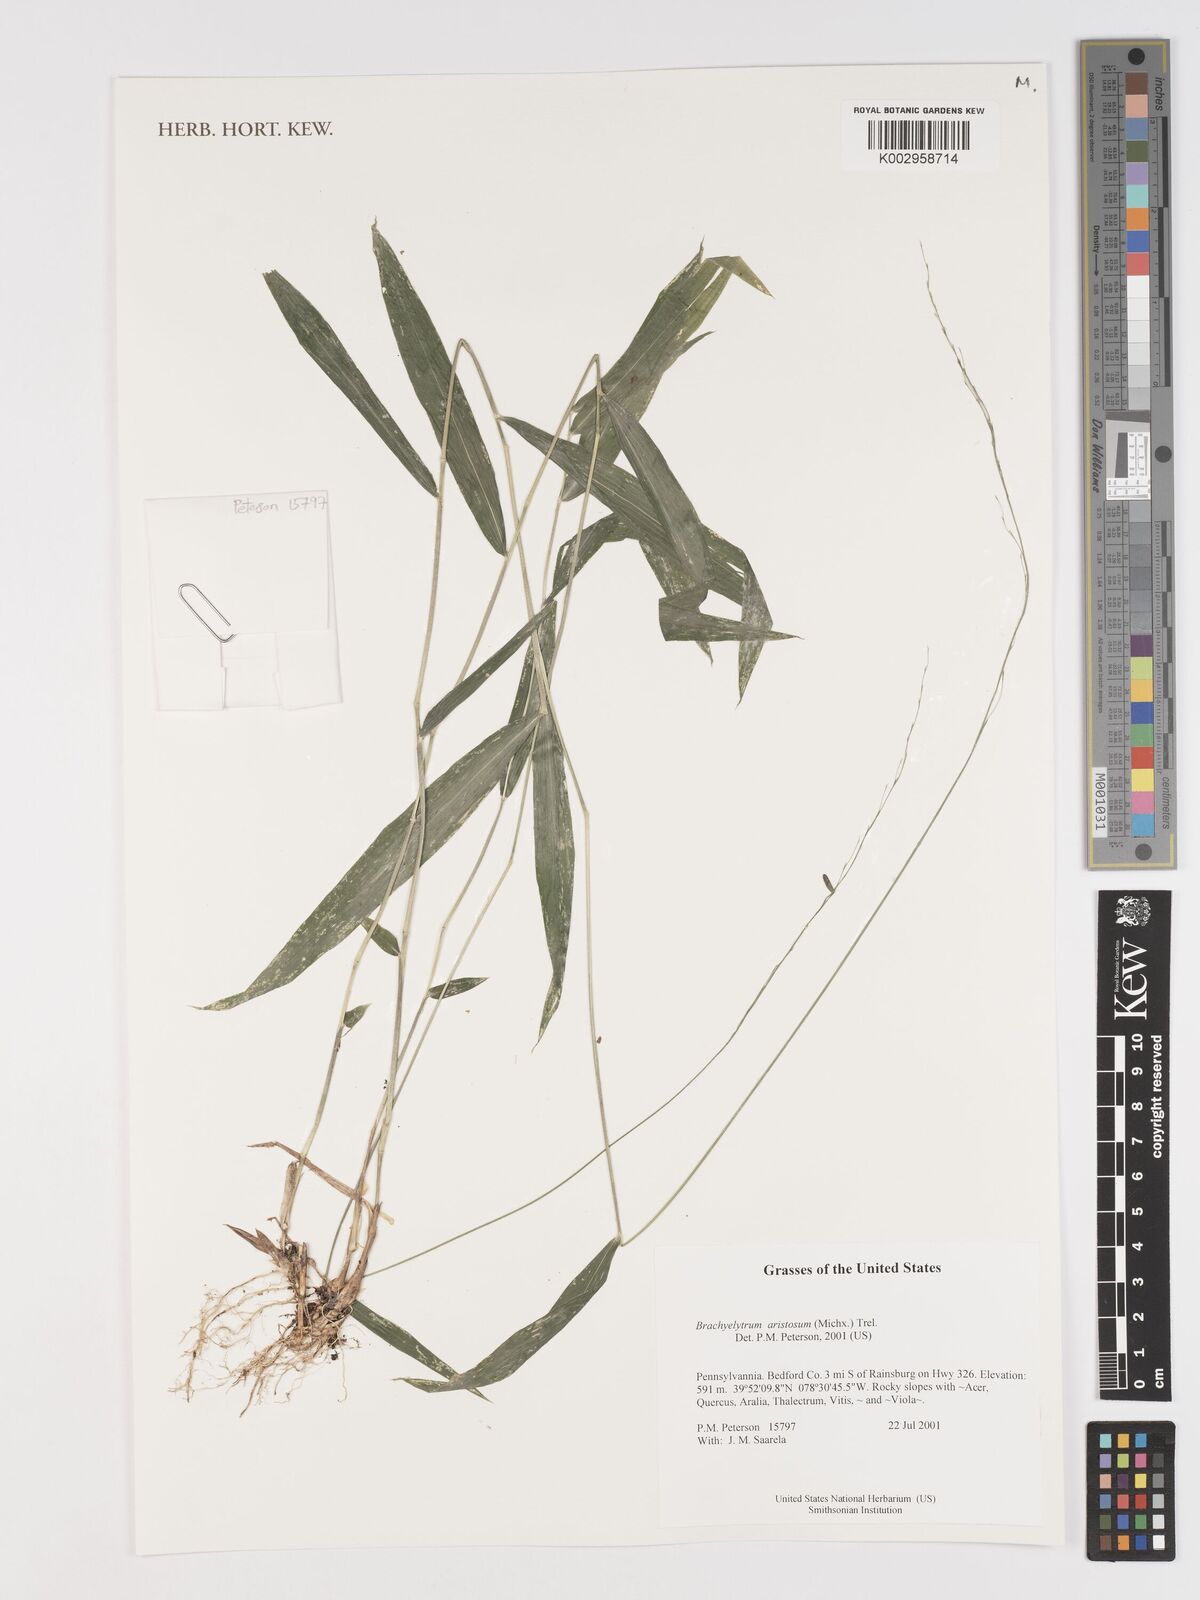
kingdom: Plantae
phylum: Tracheophyta
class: Liliopsida
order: Poales
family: Poaceae
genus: Brachyelytrum
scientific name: Brachyelytrum aristosum
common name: Northern shorthusk
